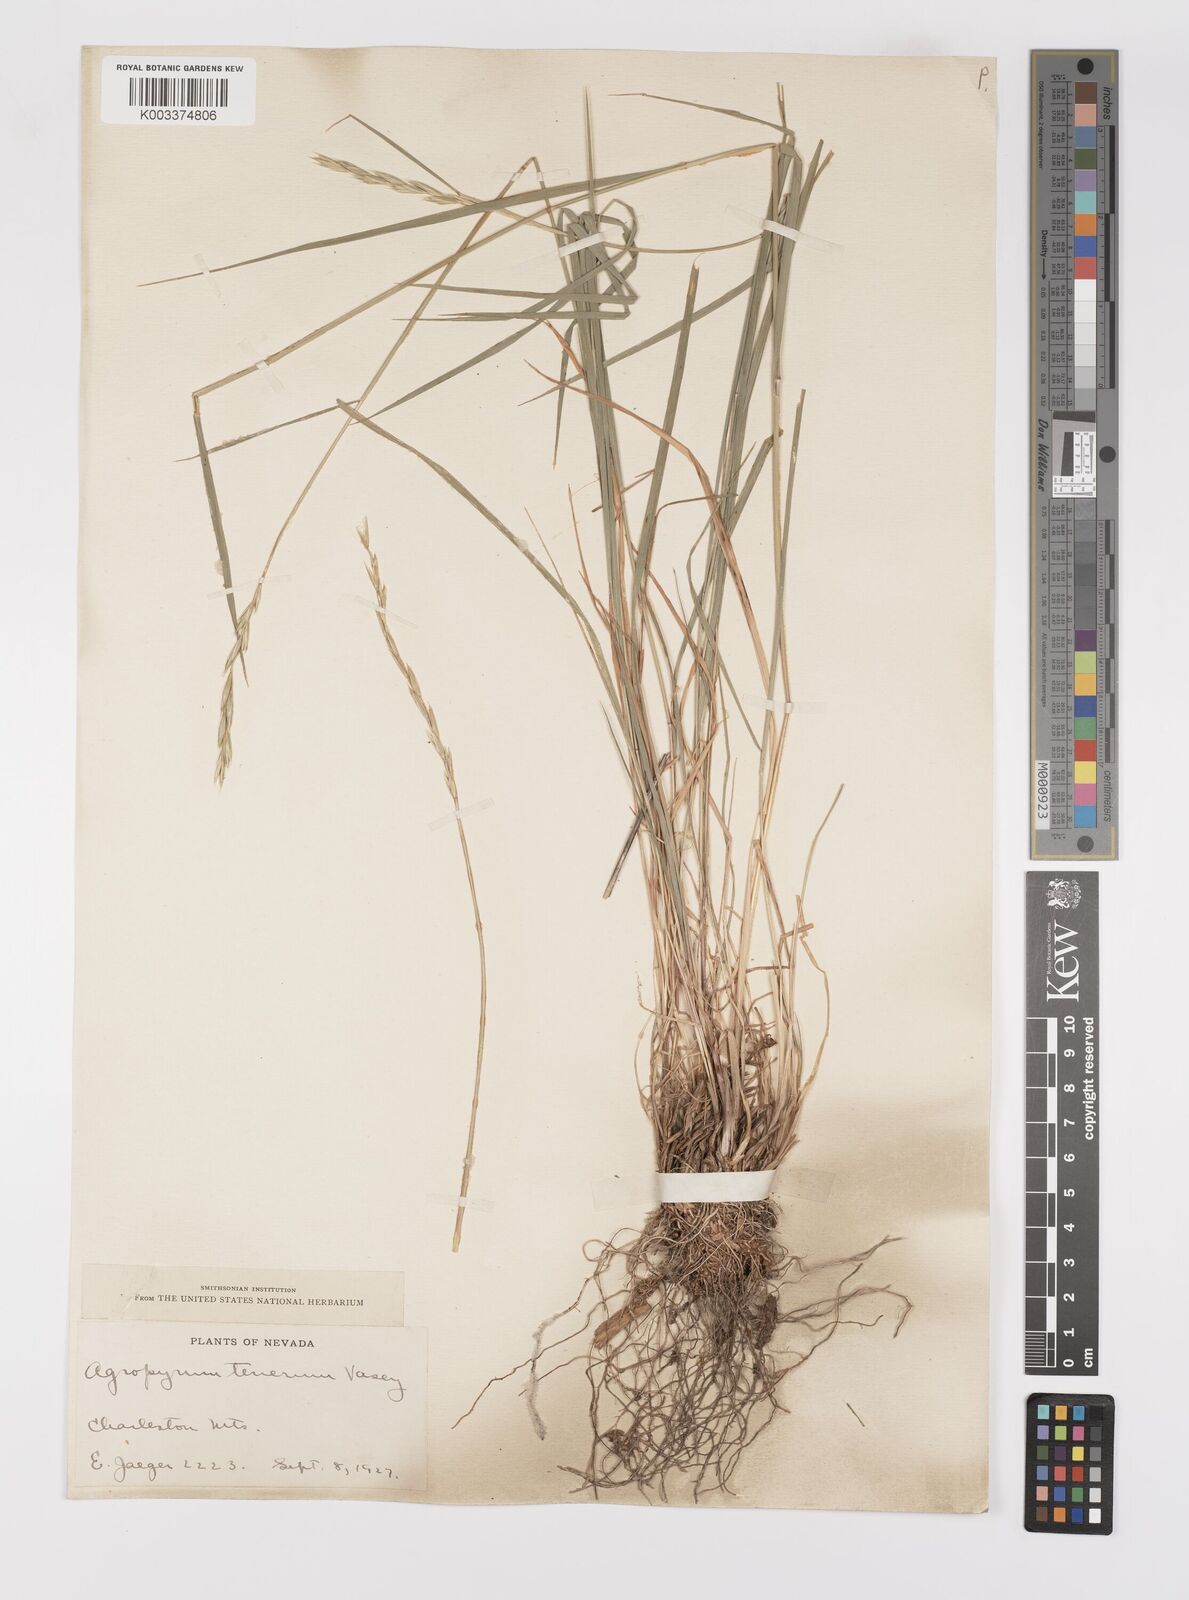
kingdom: Plantae
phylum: Tracheophyta
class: Liliopsida
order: Poales
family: Poaceae
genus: Elymus
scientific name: Elymus violaceus
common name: Arctic wheatgrass
